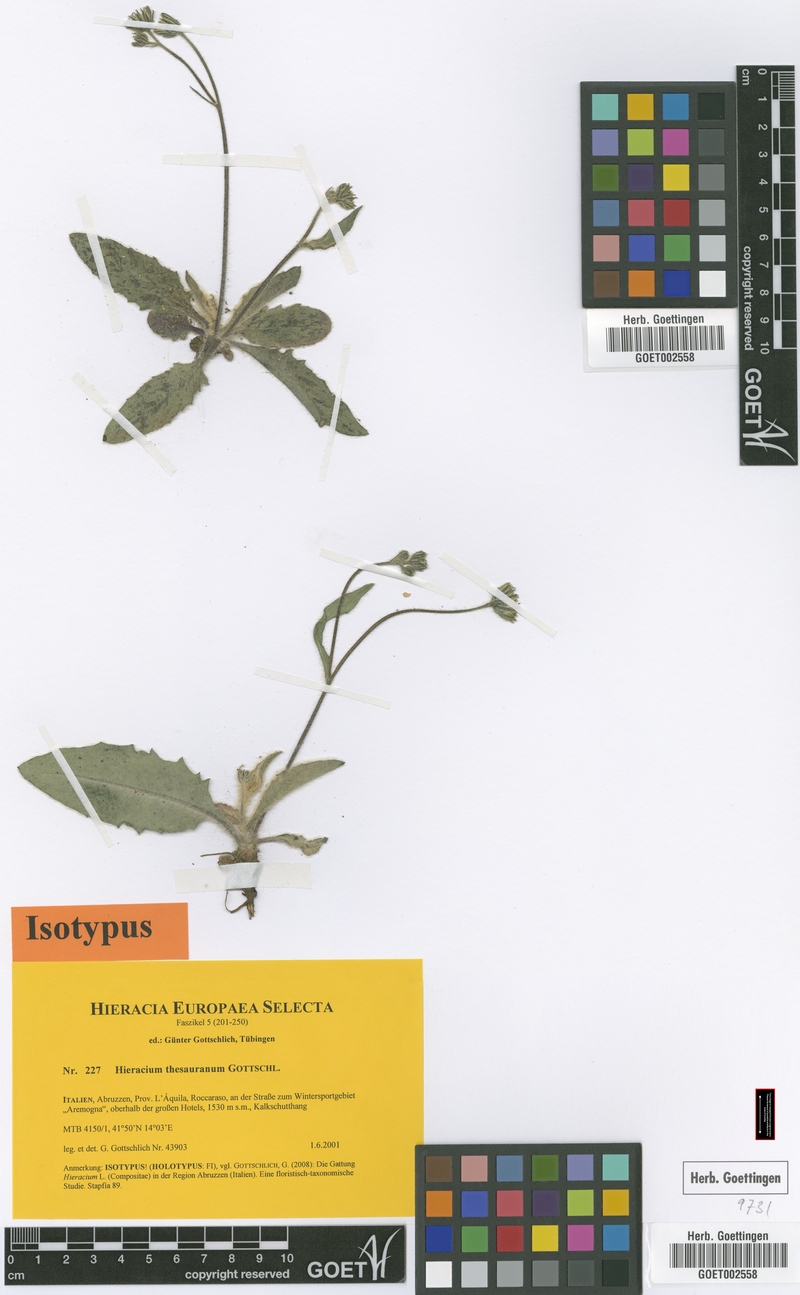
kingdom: Plantae
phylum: Tracheophyta
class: Magnoliopsida
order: Asterales
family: Asteraceae
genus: Hieracium
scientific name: Hieracium thesauranum
